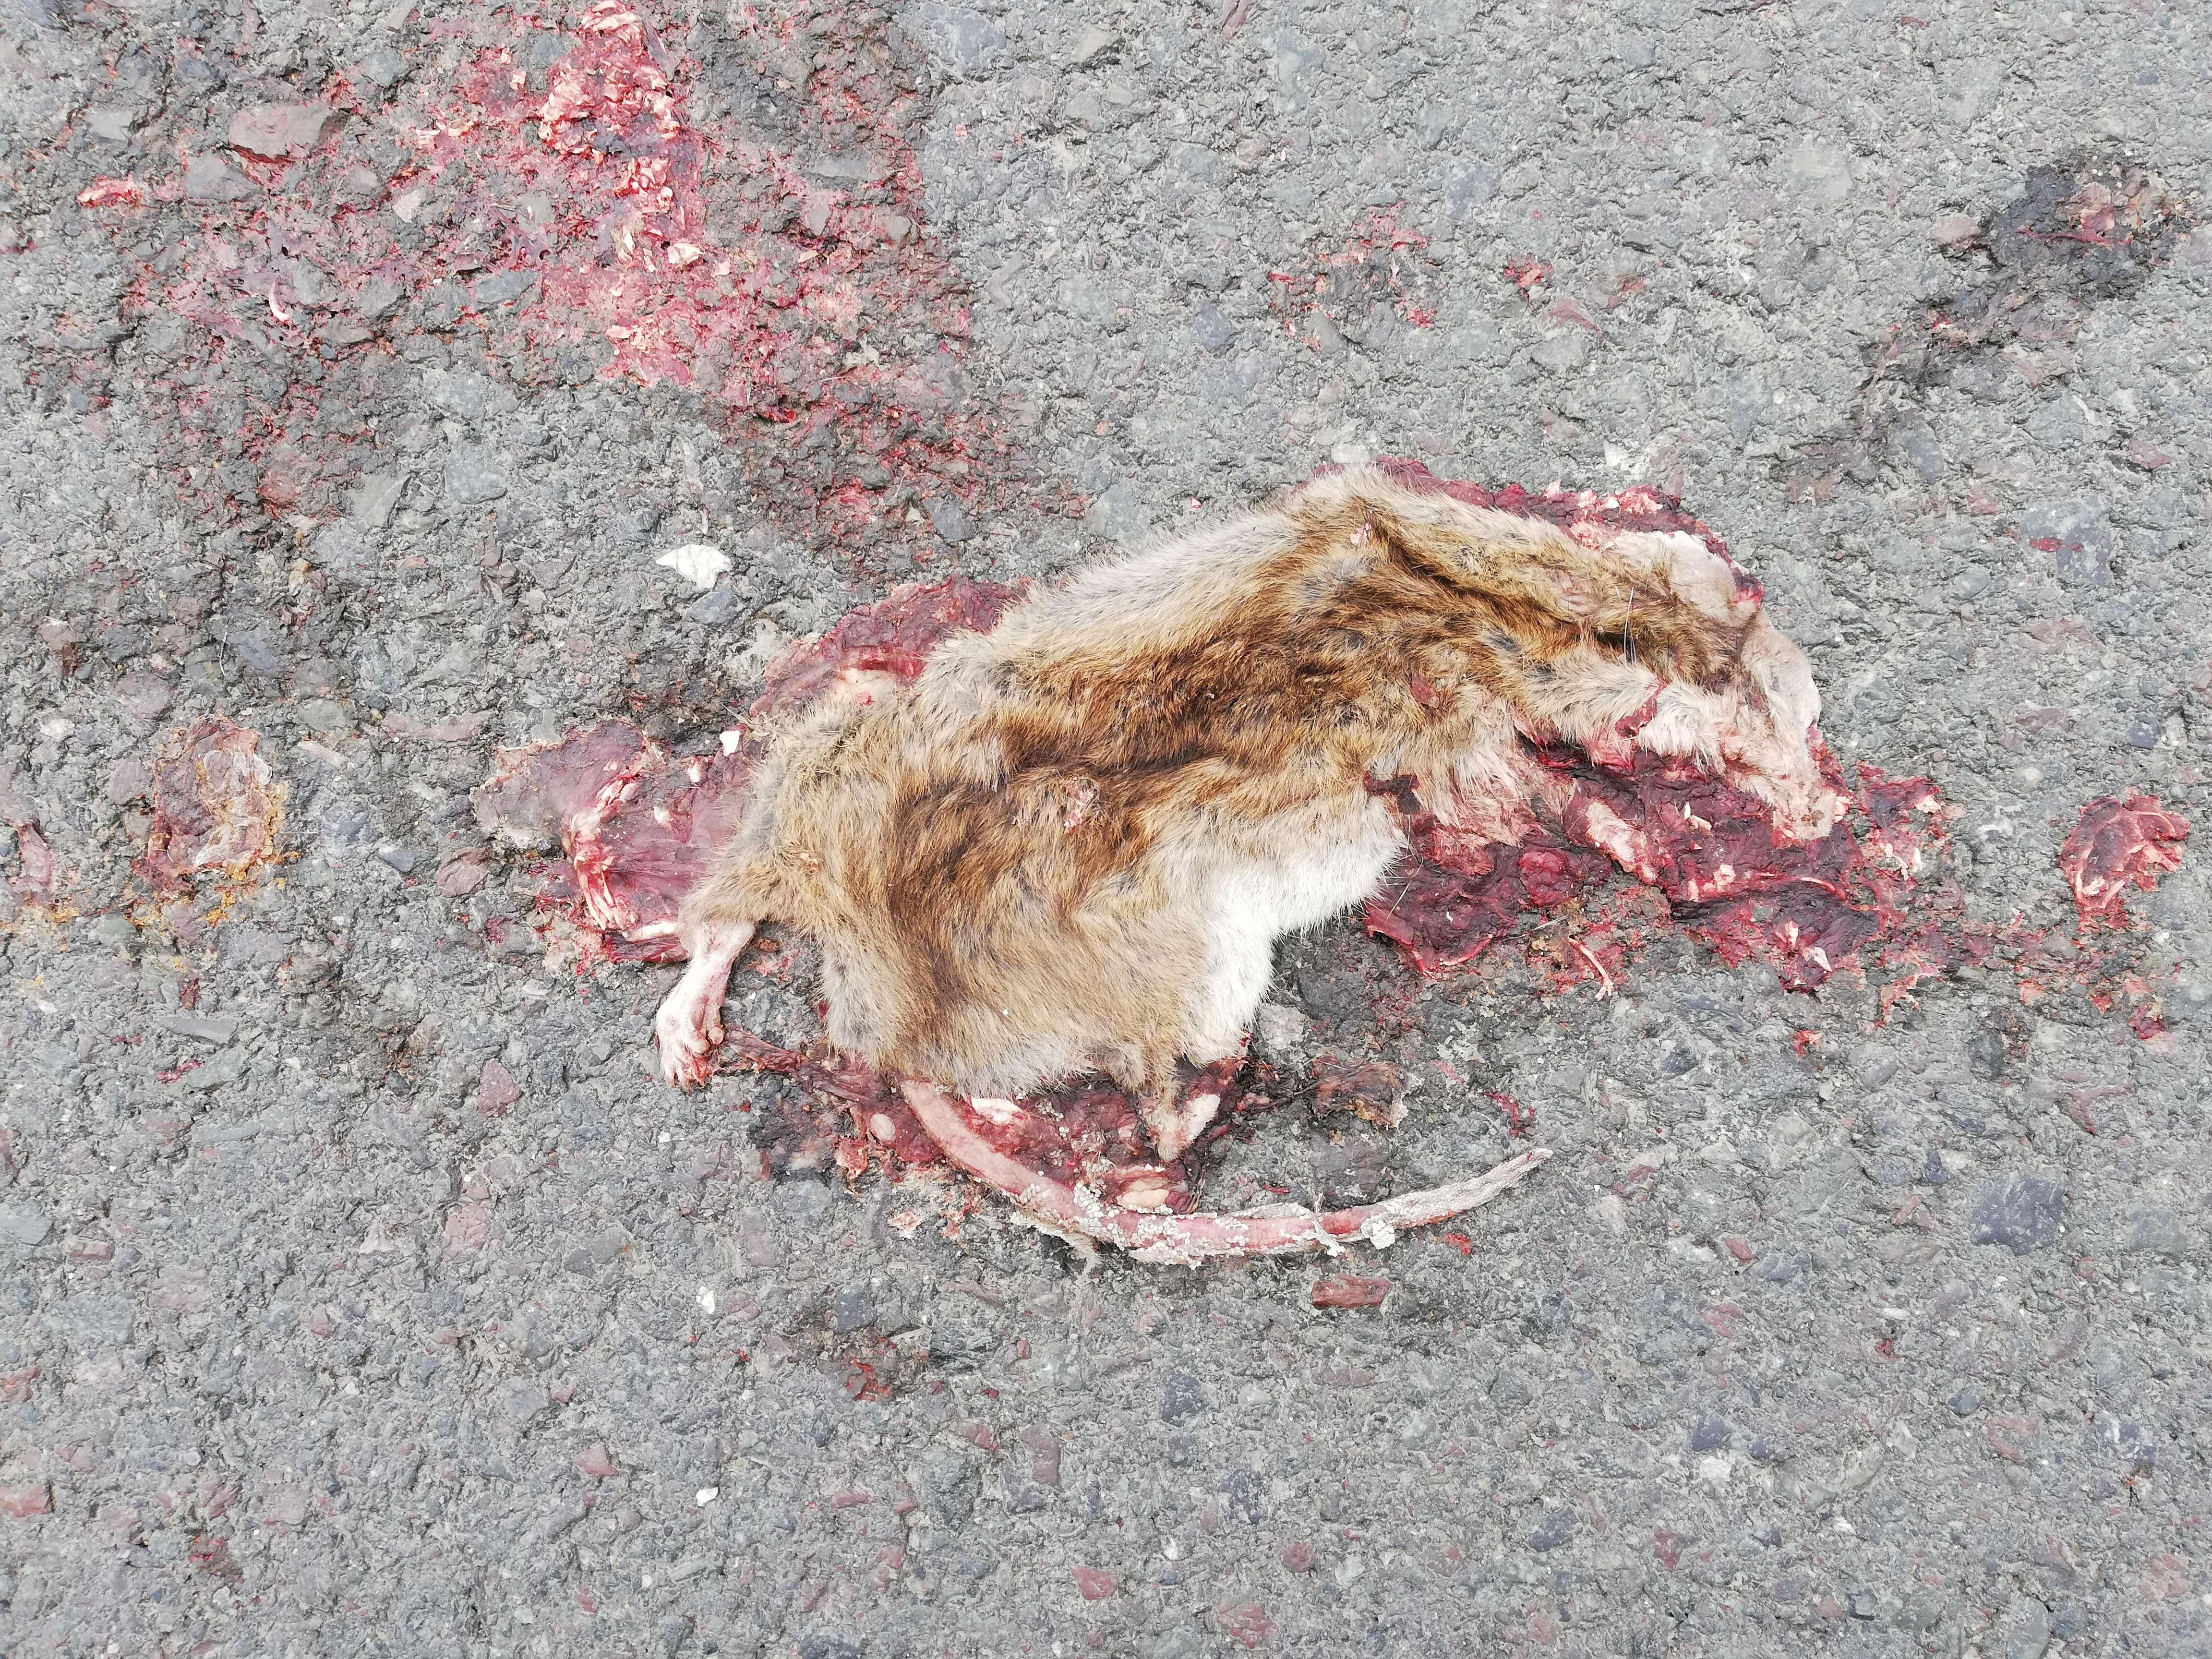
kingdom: Animalia
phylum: Chordata
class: Mammalia
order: Rodentia
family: Muridae
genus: Rattus
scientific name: Rattus norvegicus
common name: Brown rat
